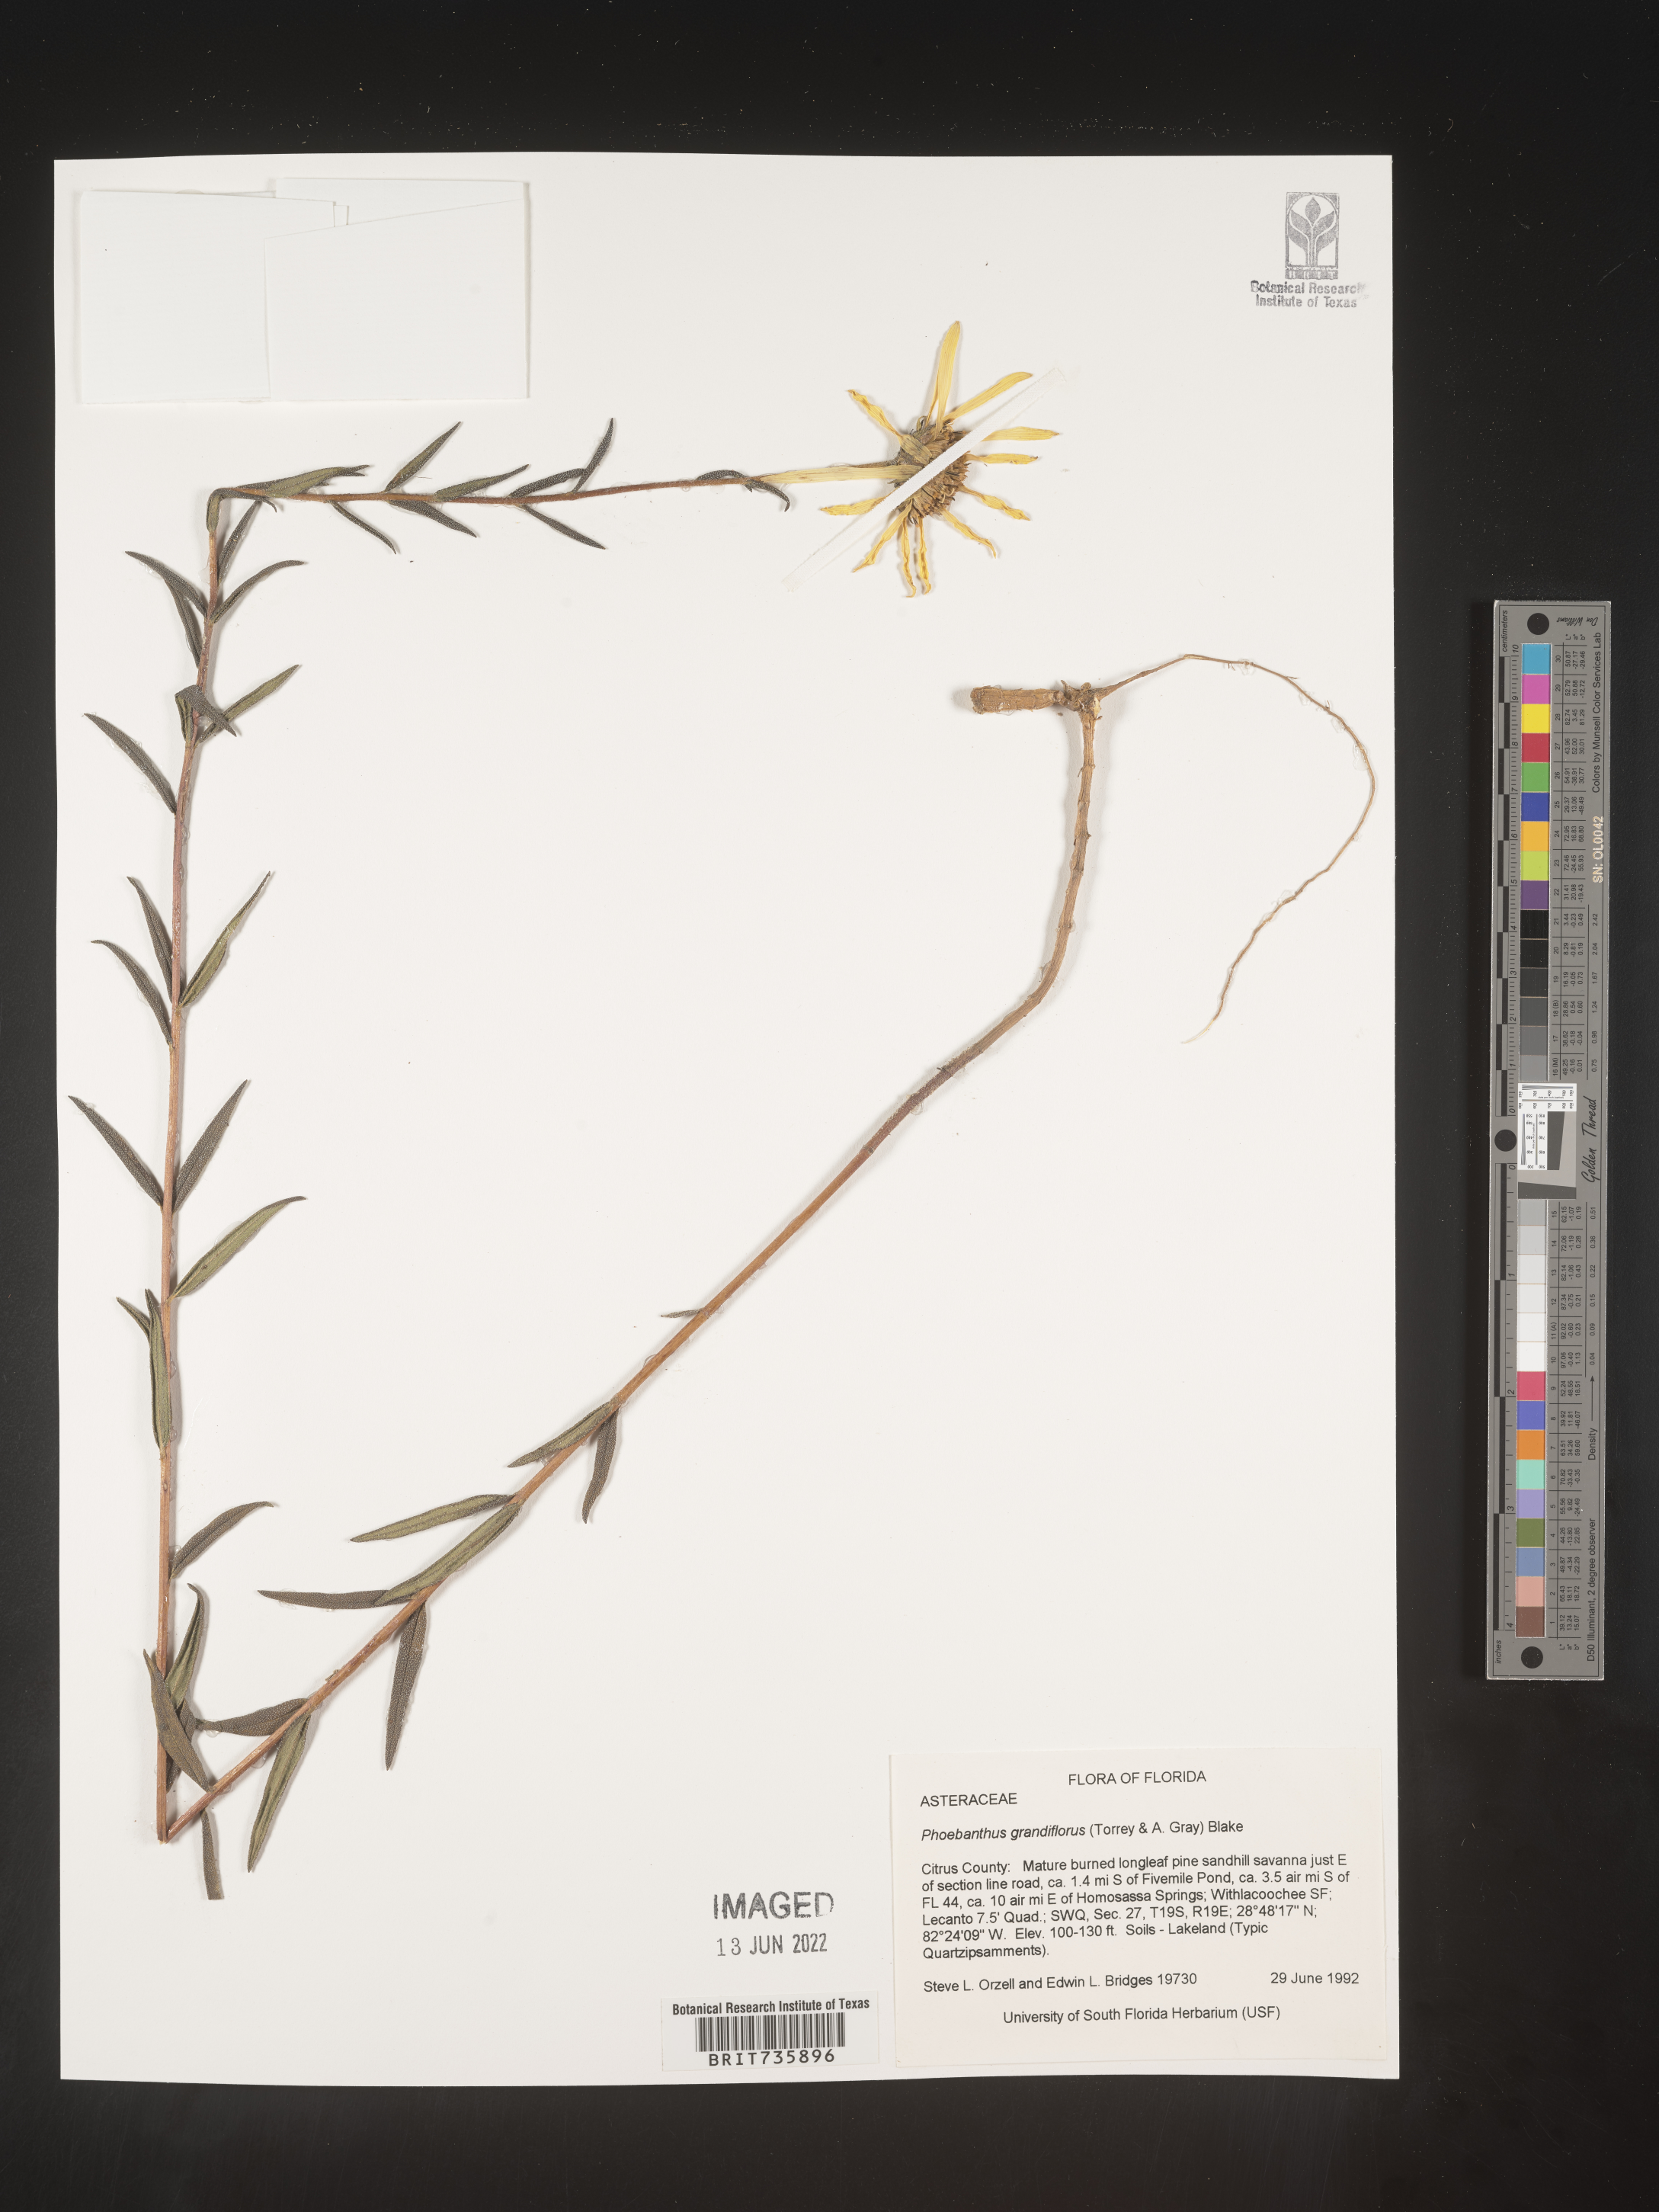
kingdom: Plantae
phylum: Tracheophyta
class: Magnoliopsida
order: Asterales
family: Asteraceae
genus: Phoebanthus
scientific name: Phoebanthus grandiflora
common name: Florida false sunflower
